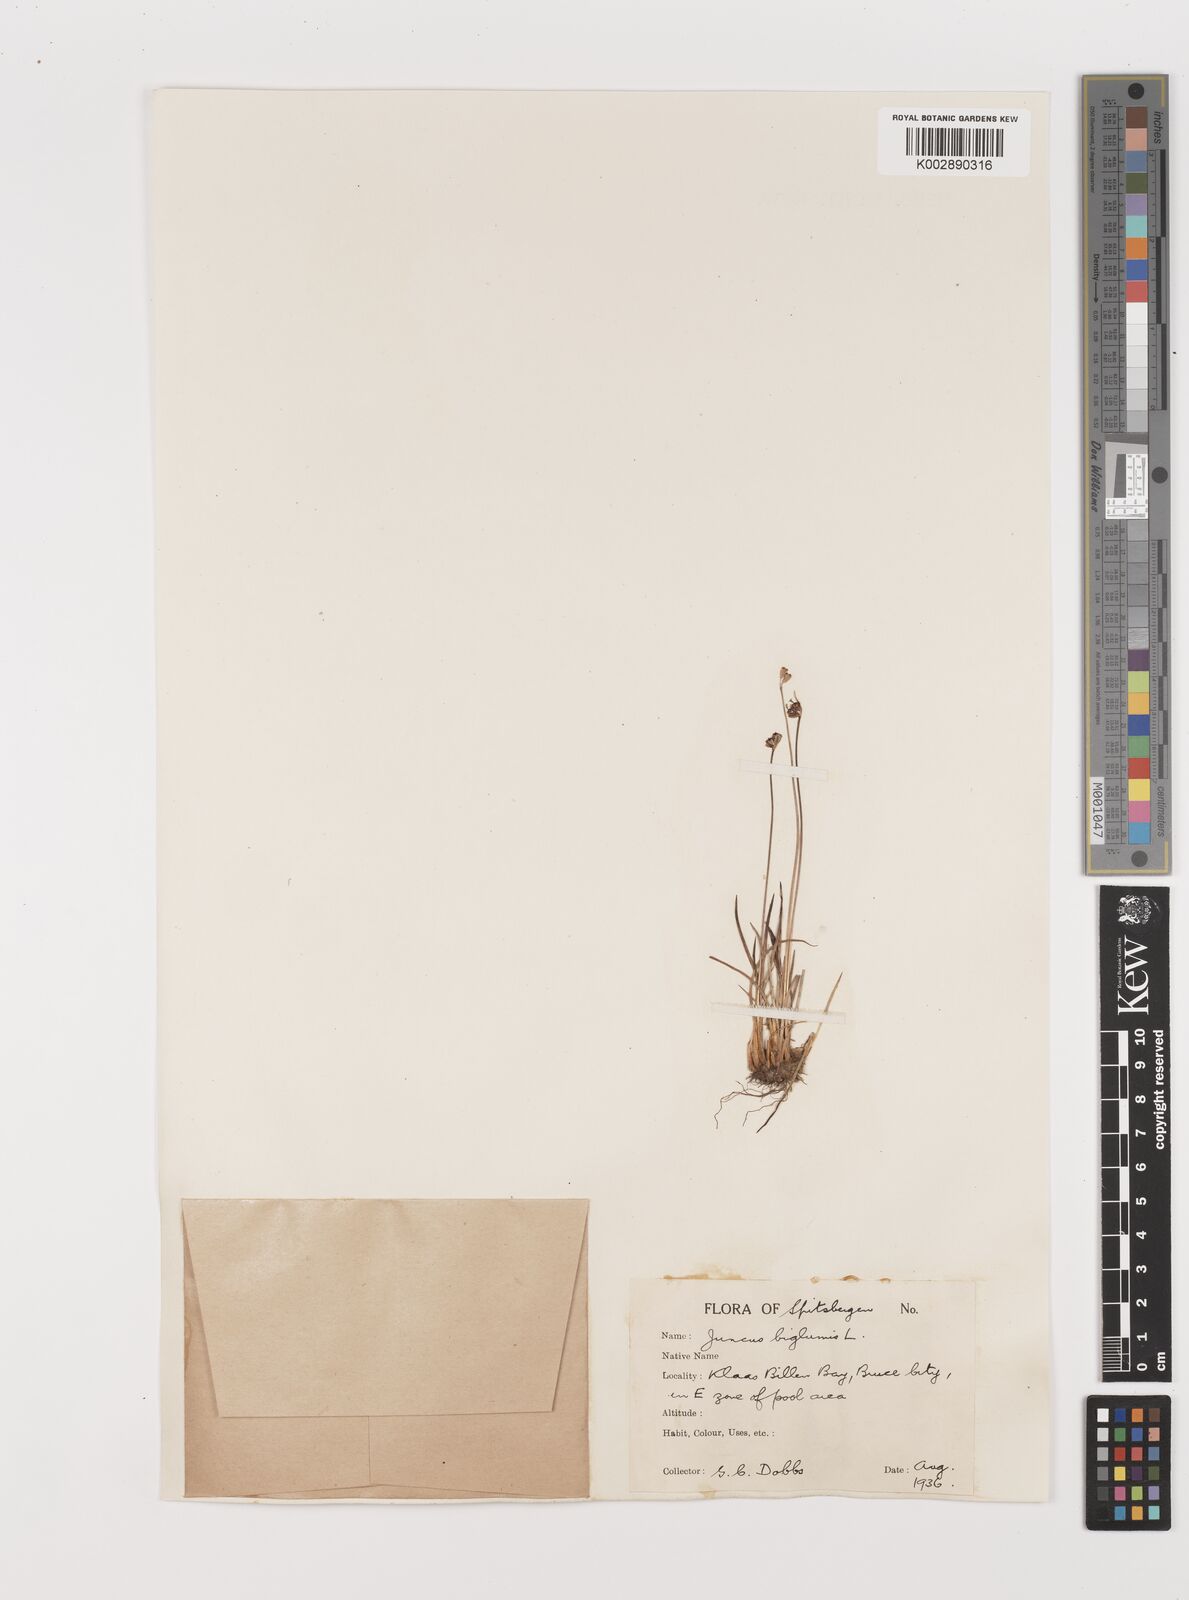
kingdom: Plantae
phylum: Tracheophyta
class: Liliopsida
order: Poales
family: Juncaceae
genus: Juncus
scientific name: Juncus biglumis
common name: Two-flowered rush
